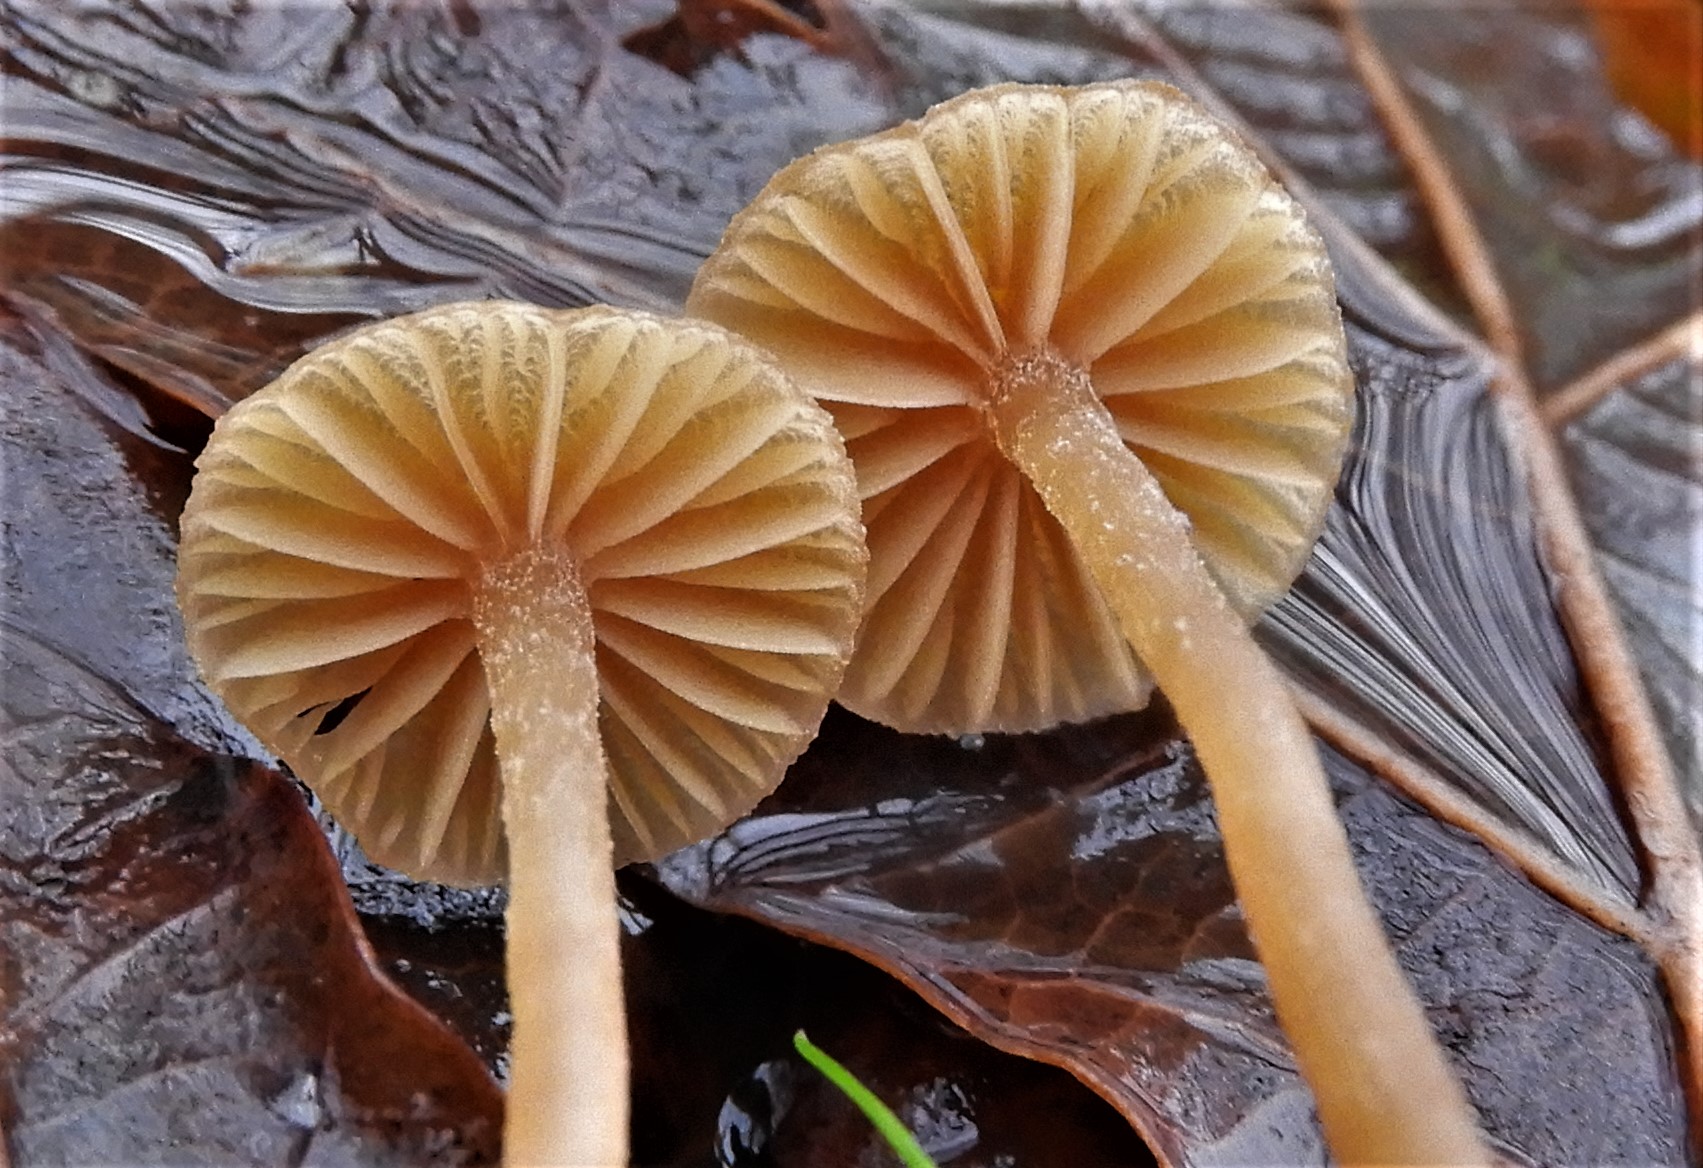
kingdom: Fungi
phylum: Basidiomycota
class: Agaricomycetes
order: Agaricales
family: Hymenogastraceae
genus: Galerina
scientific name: Galerina
